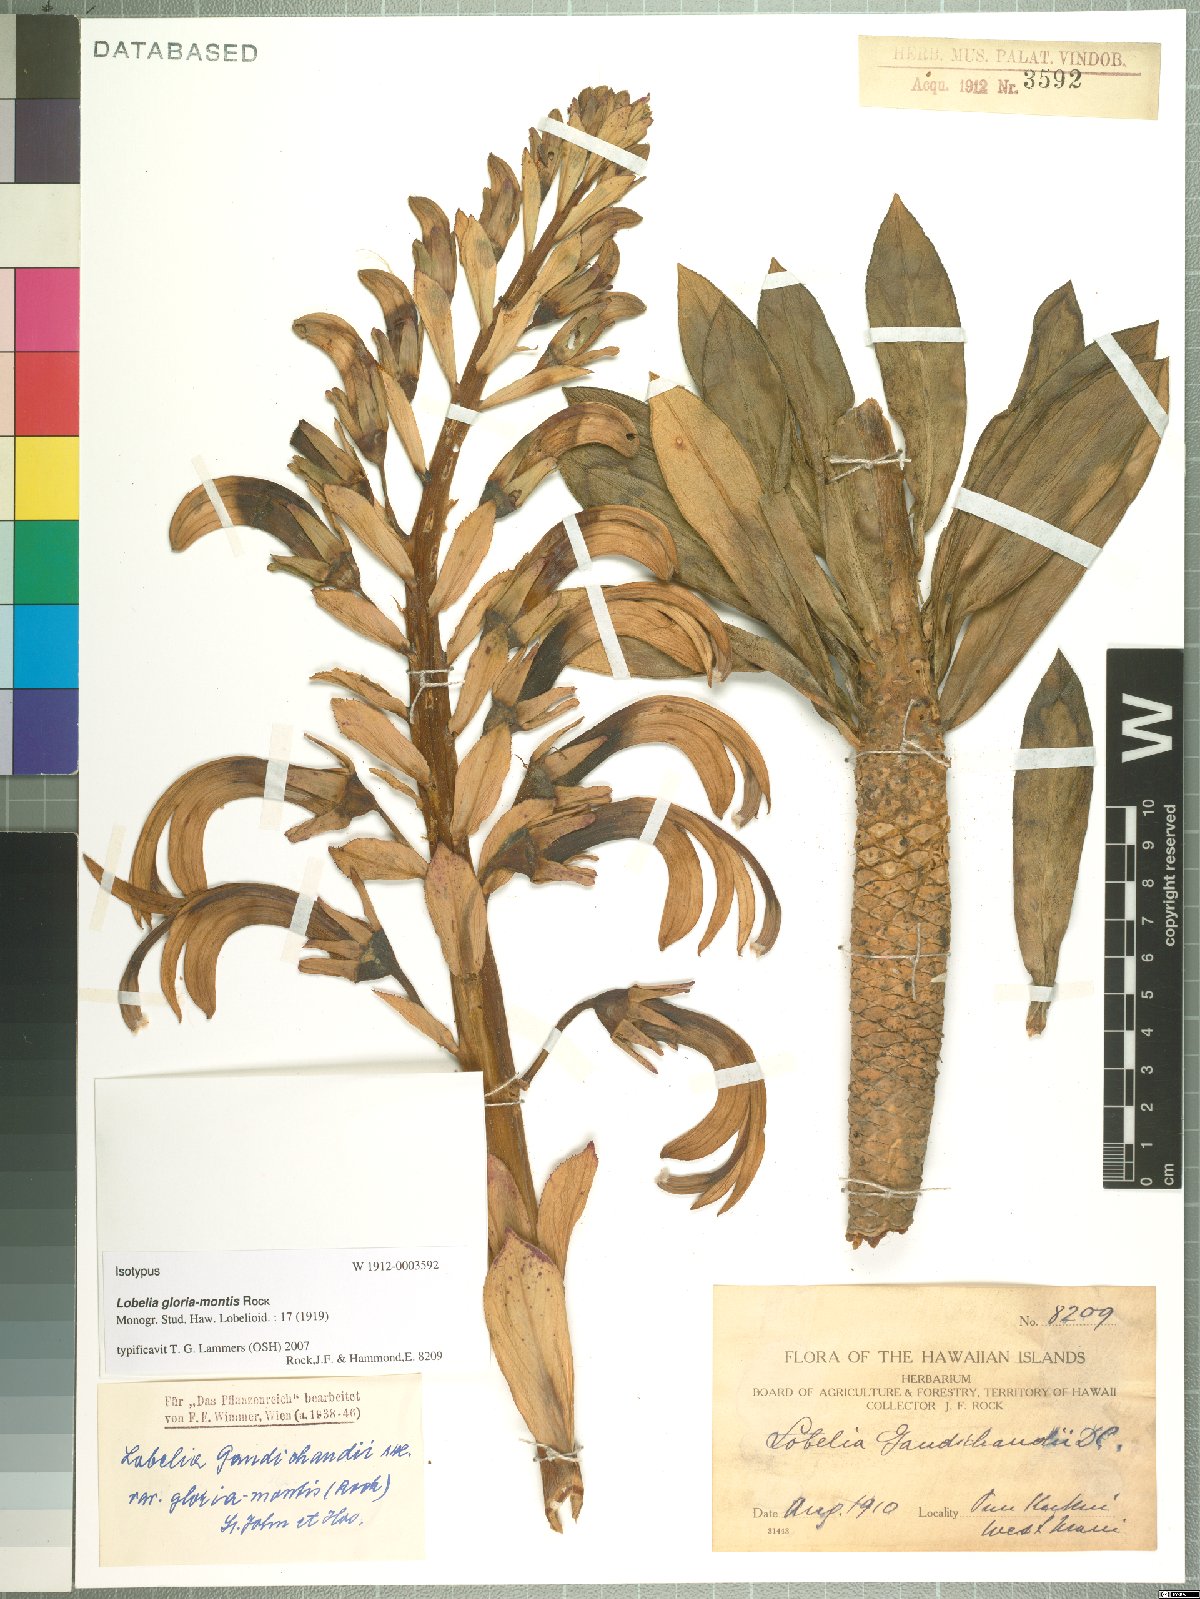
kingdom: Plantae
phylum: Tracheophyta
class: Magnoliopsida
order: Asterales
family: Campanulaceae
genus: Lobelia
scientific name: Lobelia gloria-montis
